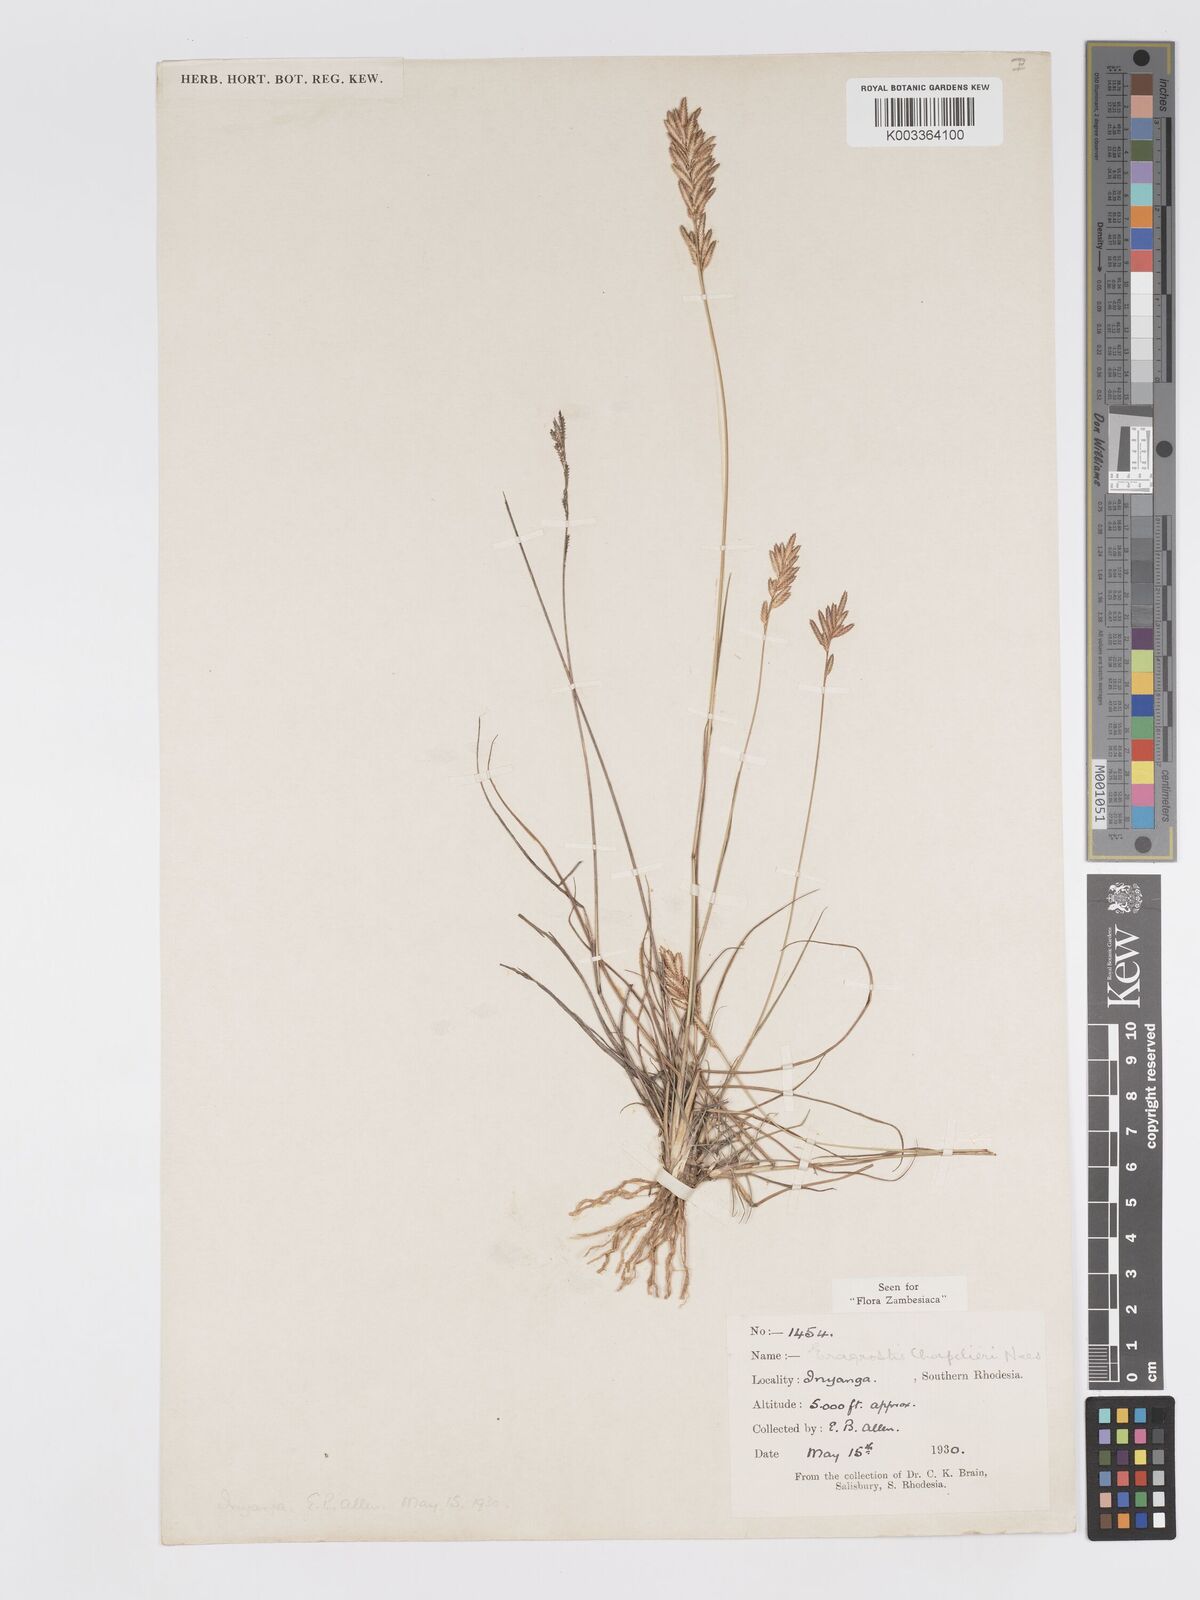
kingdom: Plantae
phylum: Tracheophyta
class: Liliopsida
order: Poales
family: Poaceae
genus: Eragrostis
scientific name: Eragrostis chapelieri
